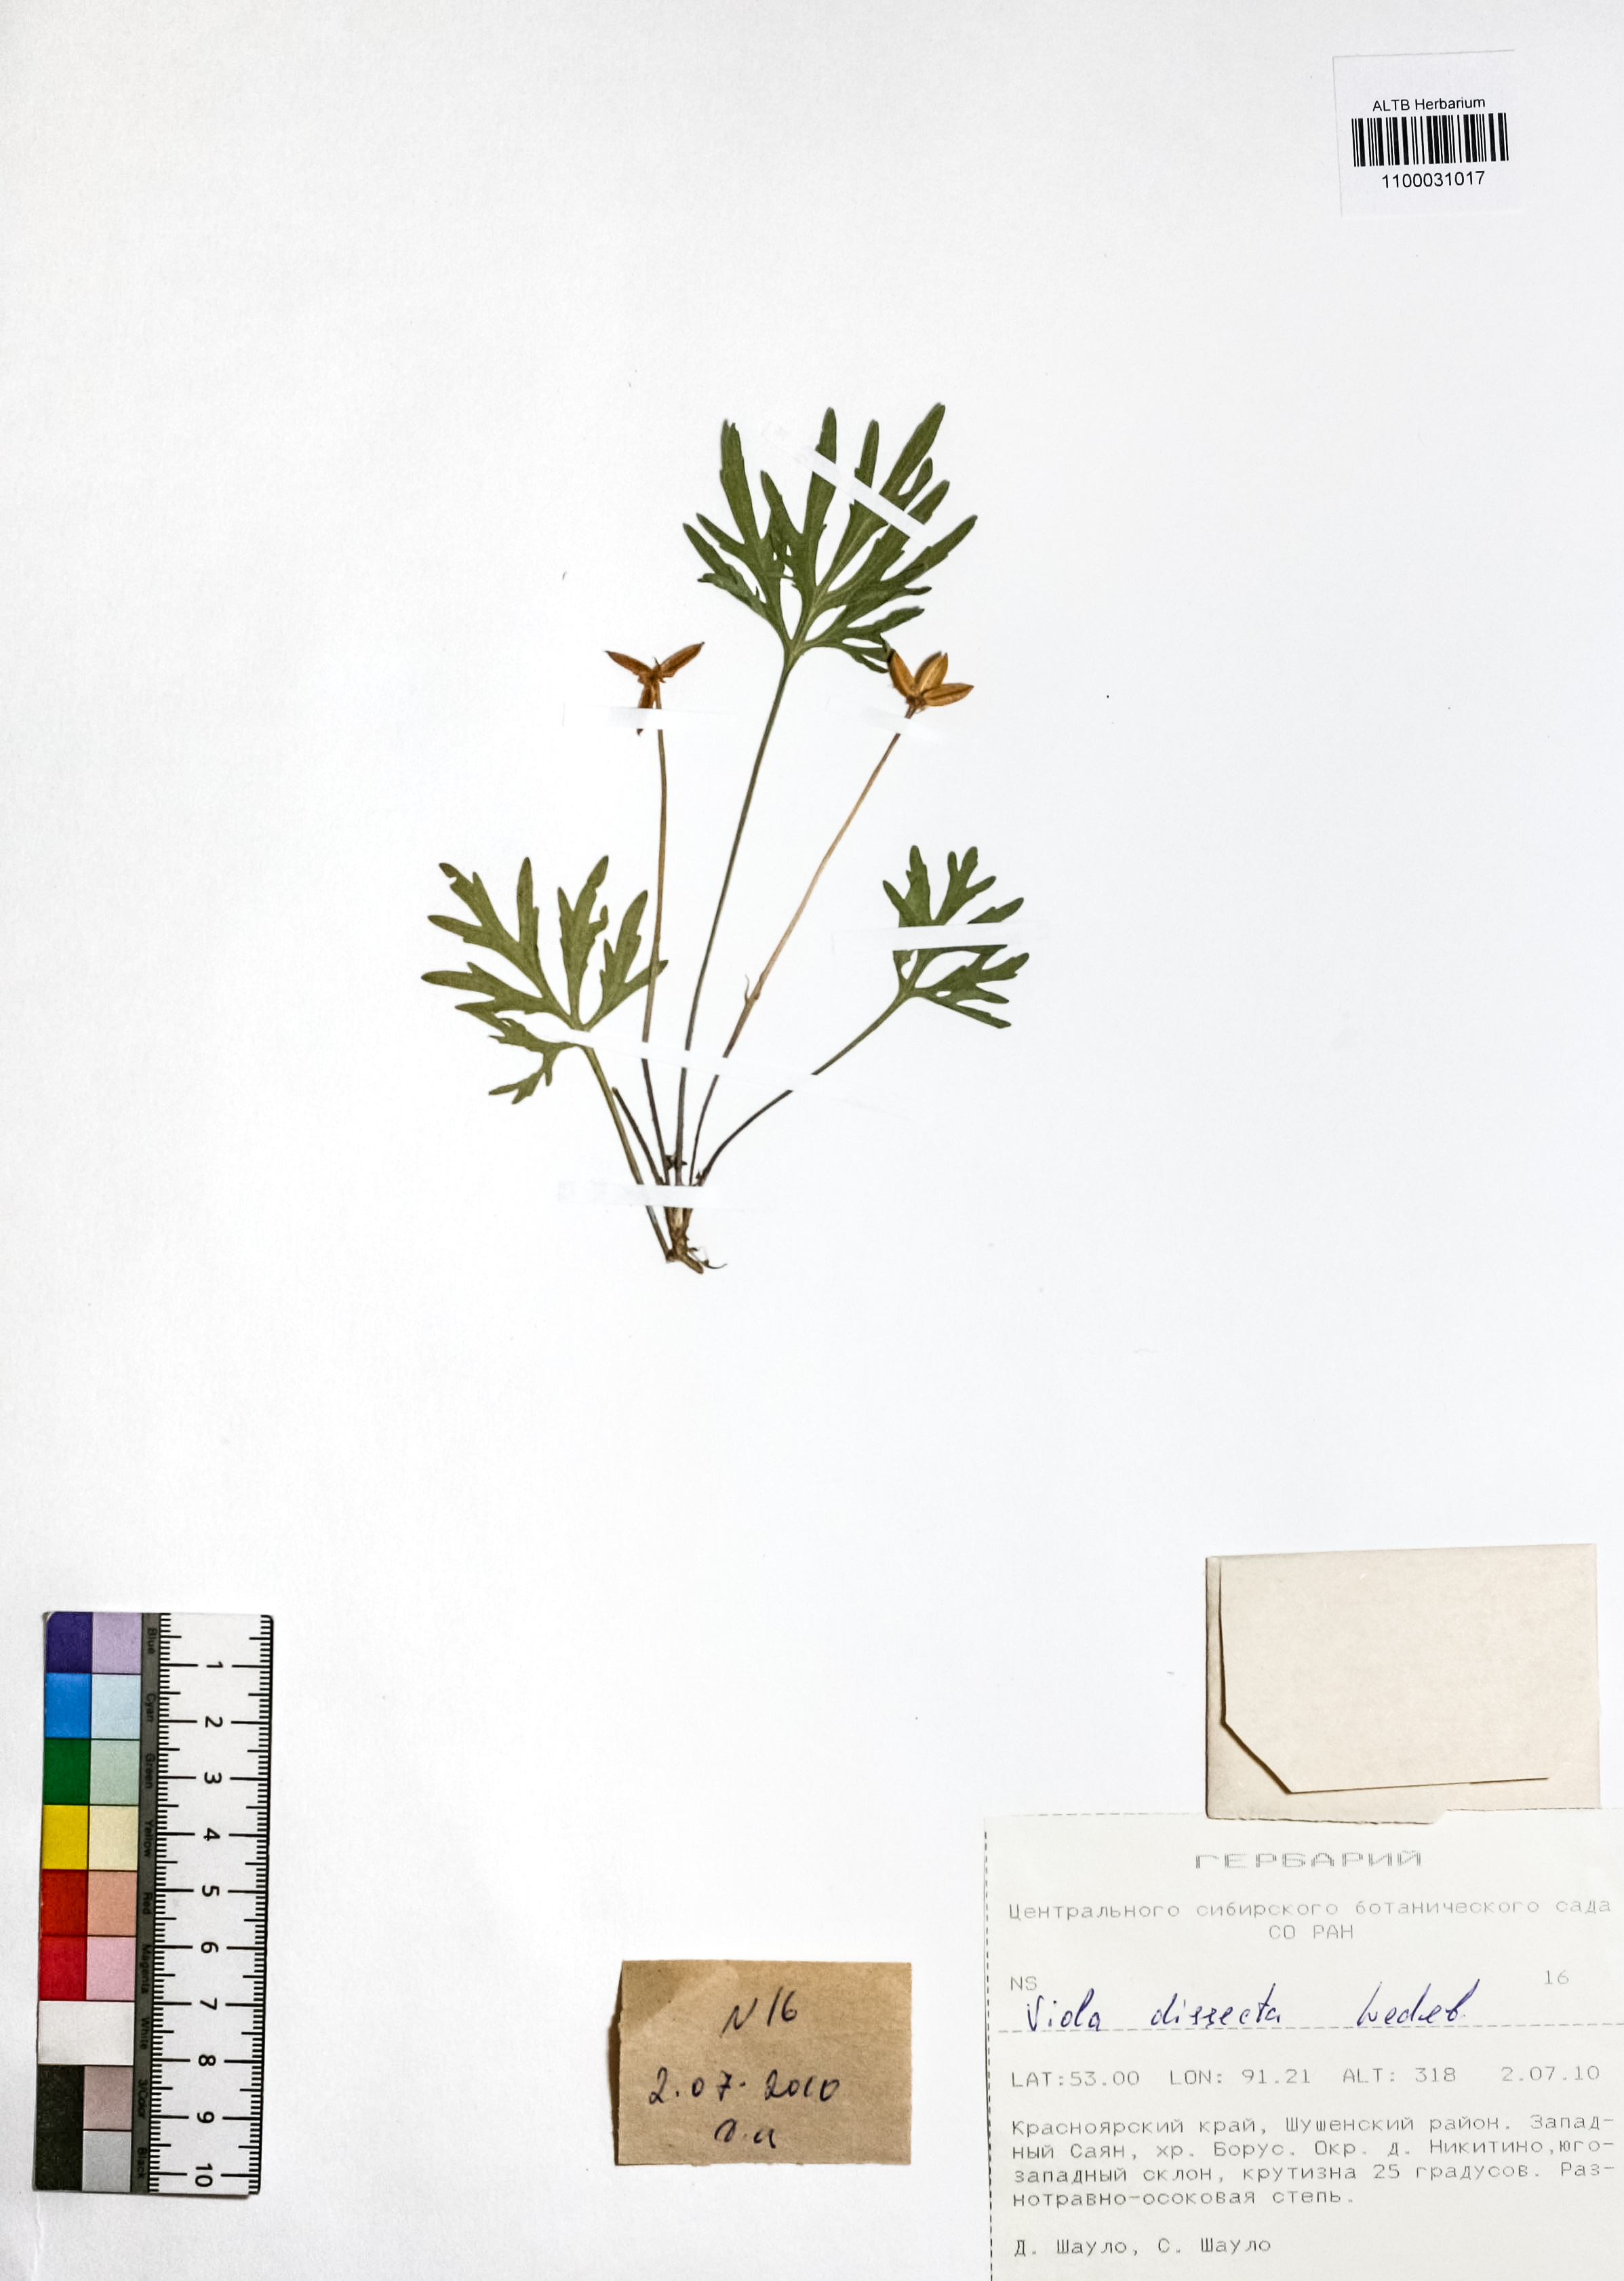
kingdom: Plantae
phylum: Tracheophyta
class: Magnoliopsida
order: Malpighiales
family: Violaceae
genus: Viola
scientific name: Viola multifida
